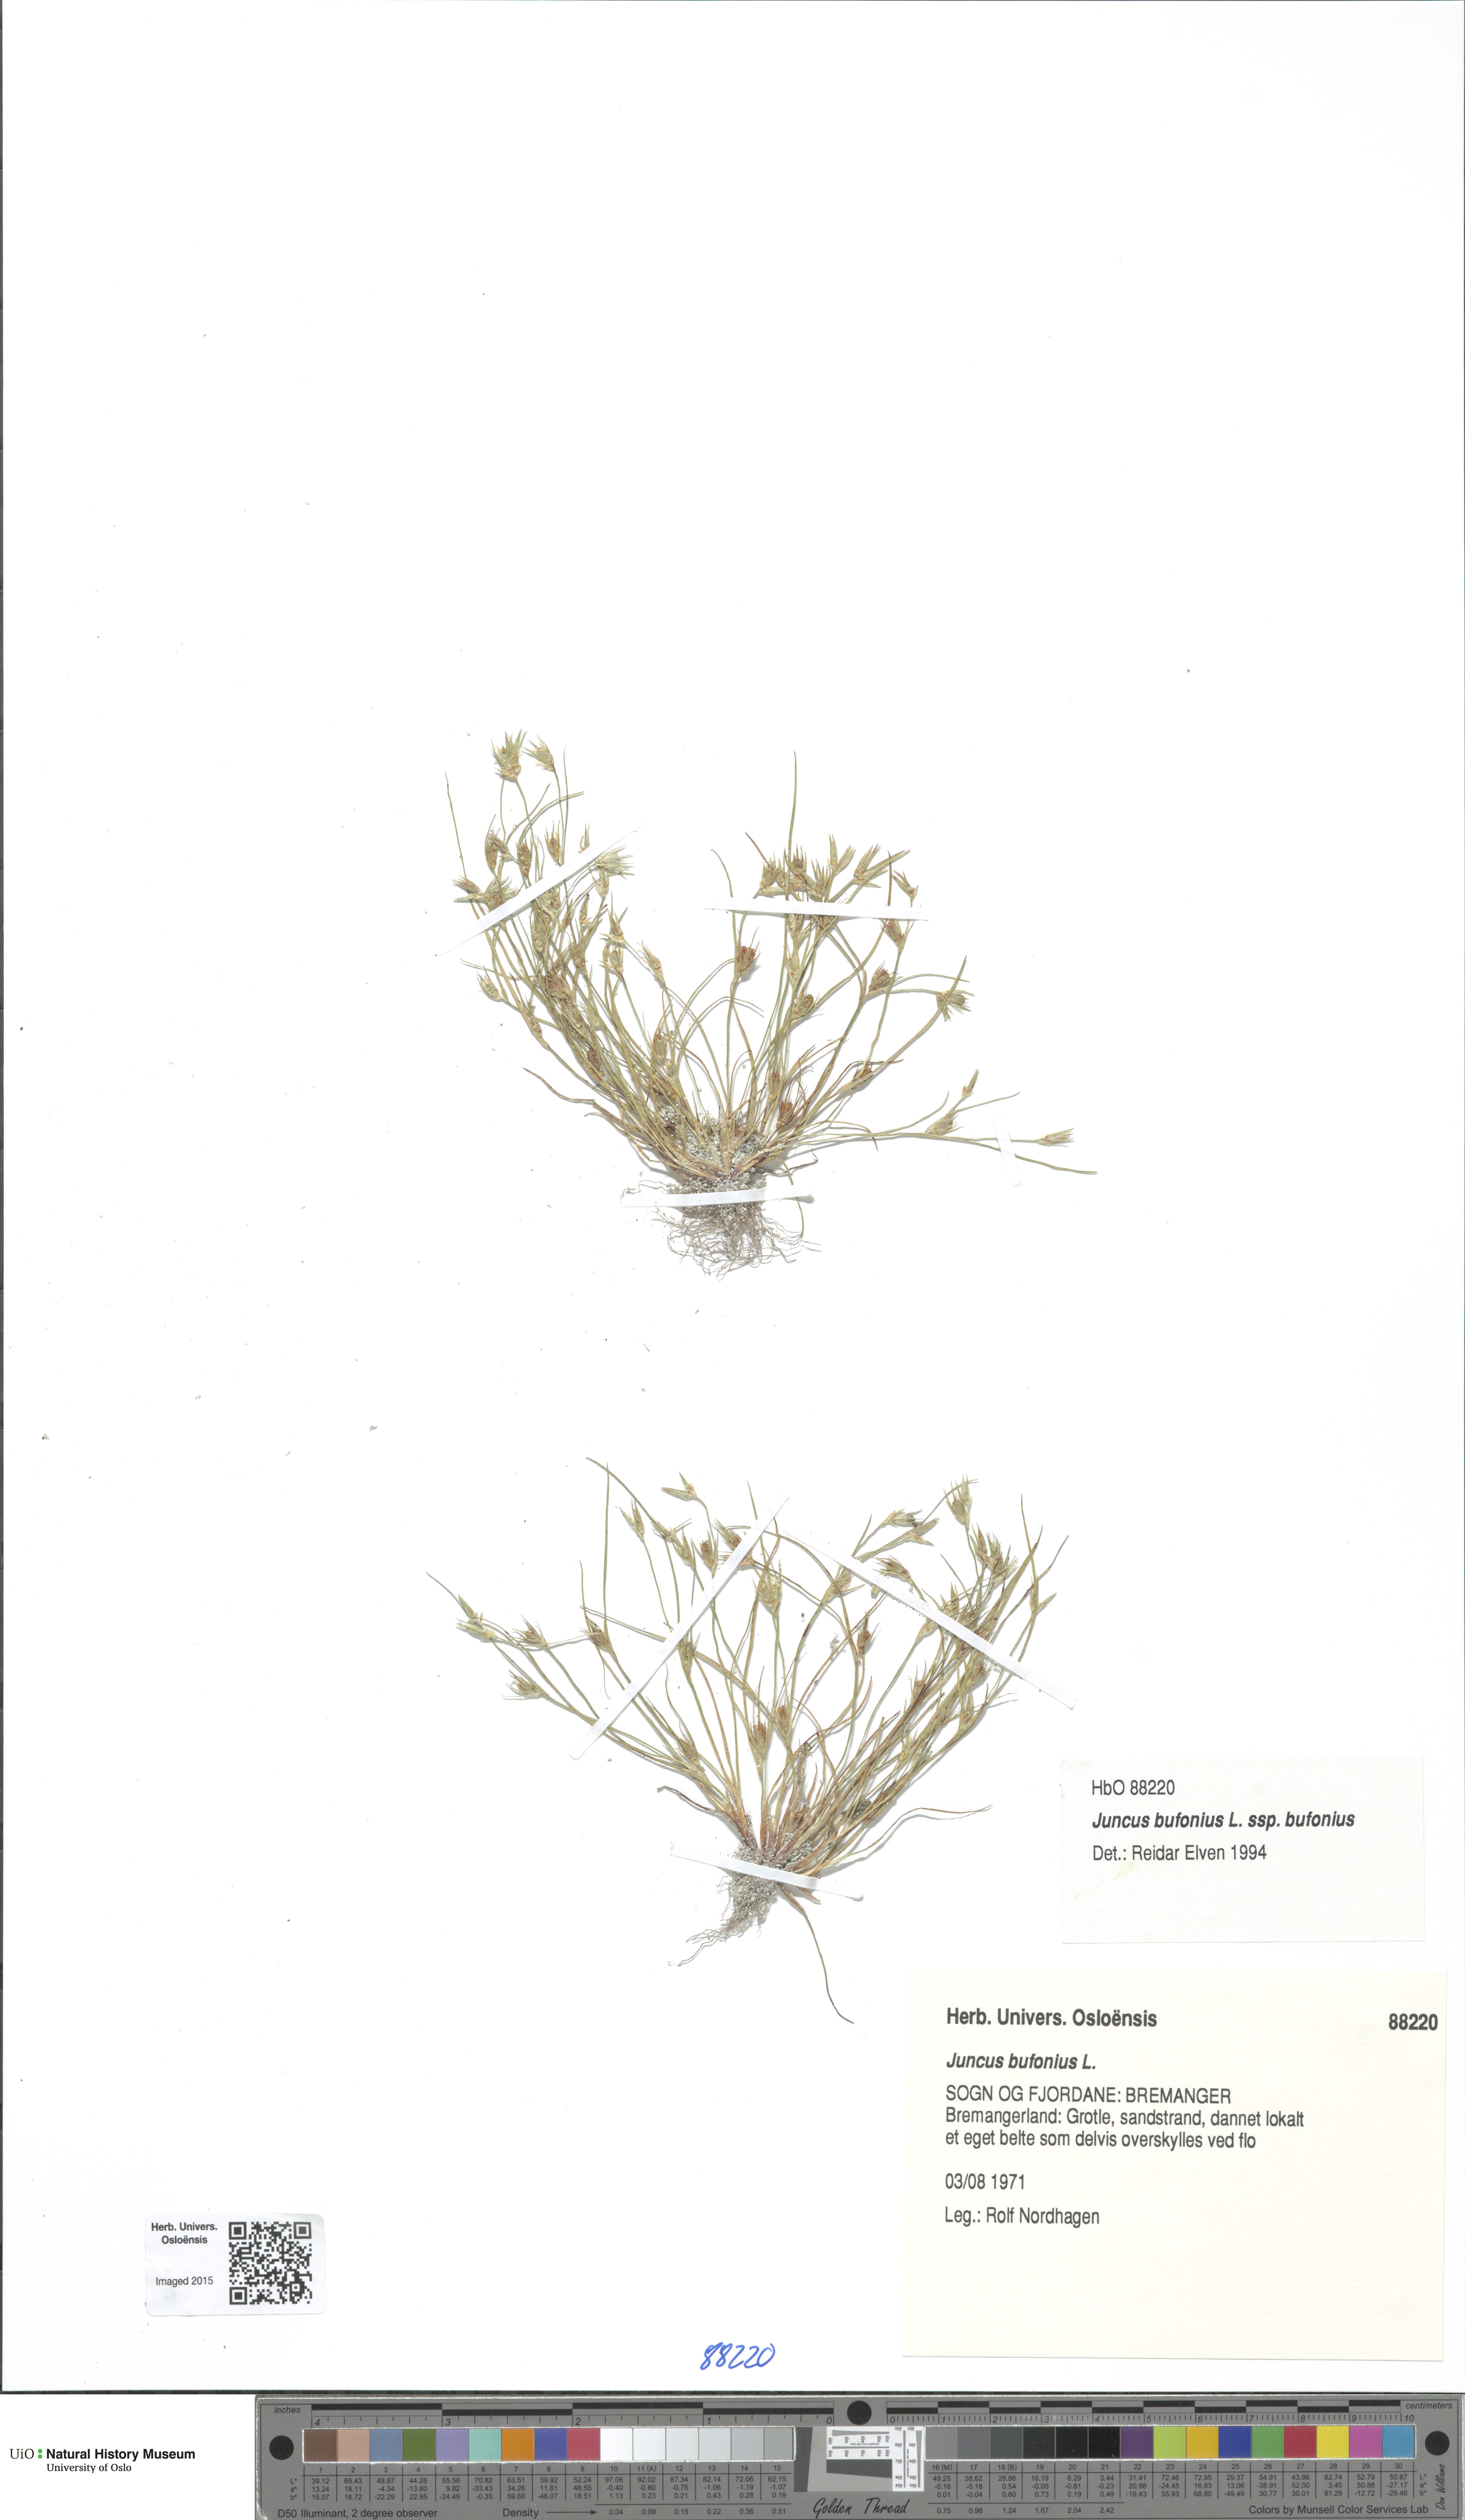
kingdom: Plantae
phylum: Tracheophyta
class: Liliopsida
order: Poales
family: Juncaceae
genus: Juncus
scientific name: Juncus bufonius
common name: Toad rush
